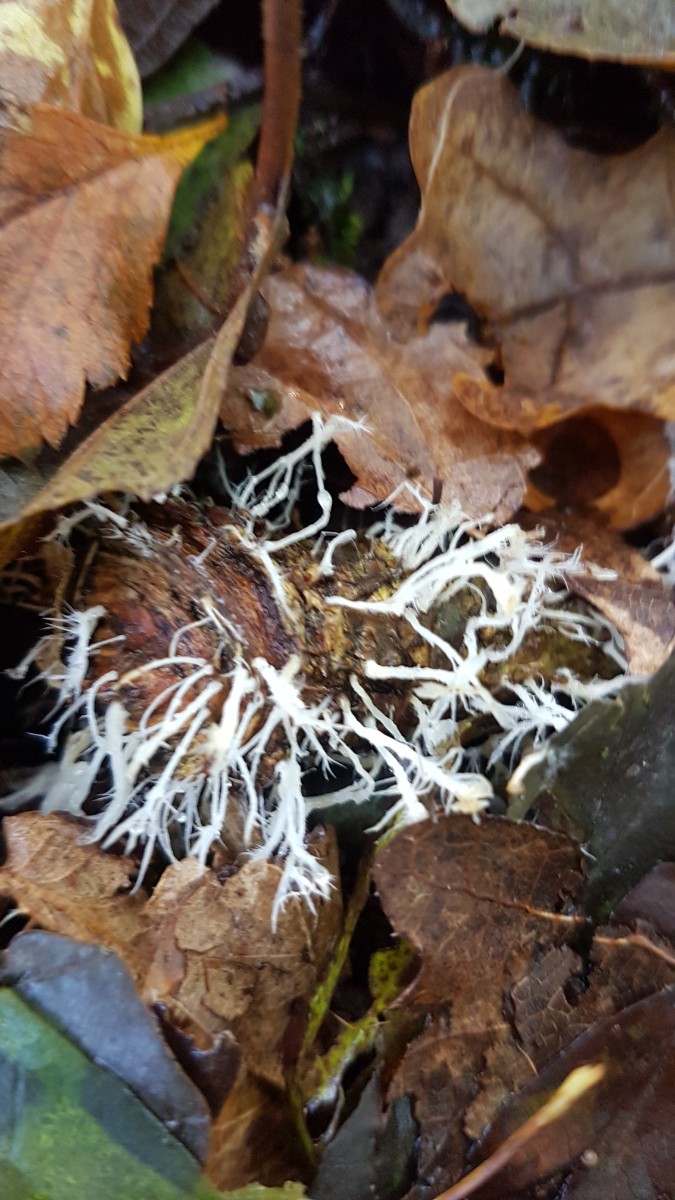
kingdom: Fungi
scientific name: Fungi
